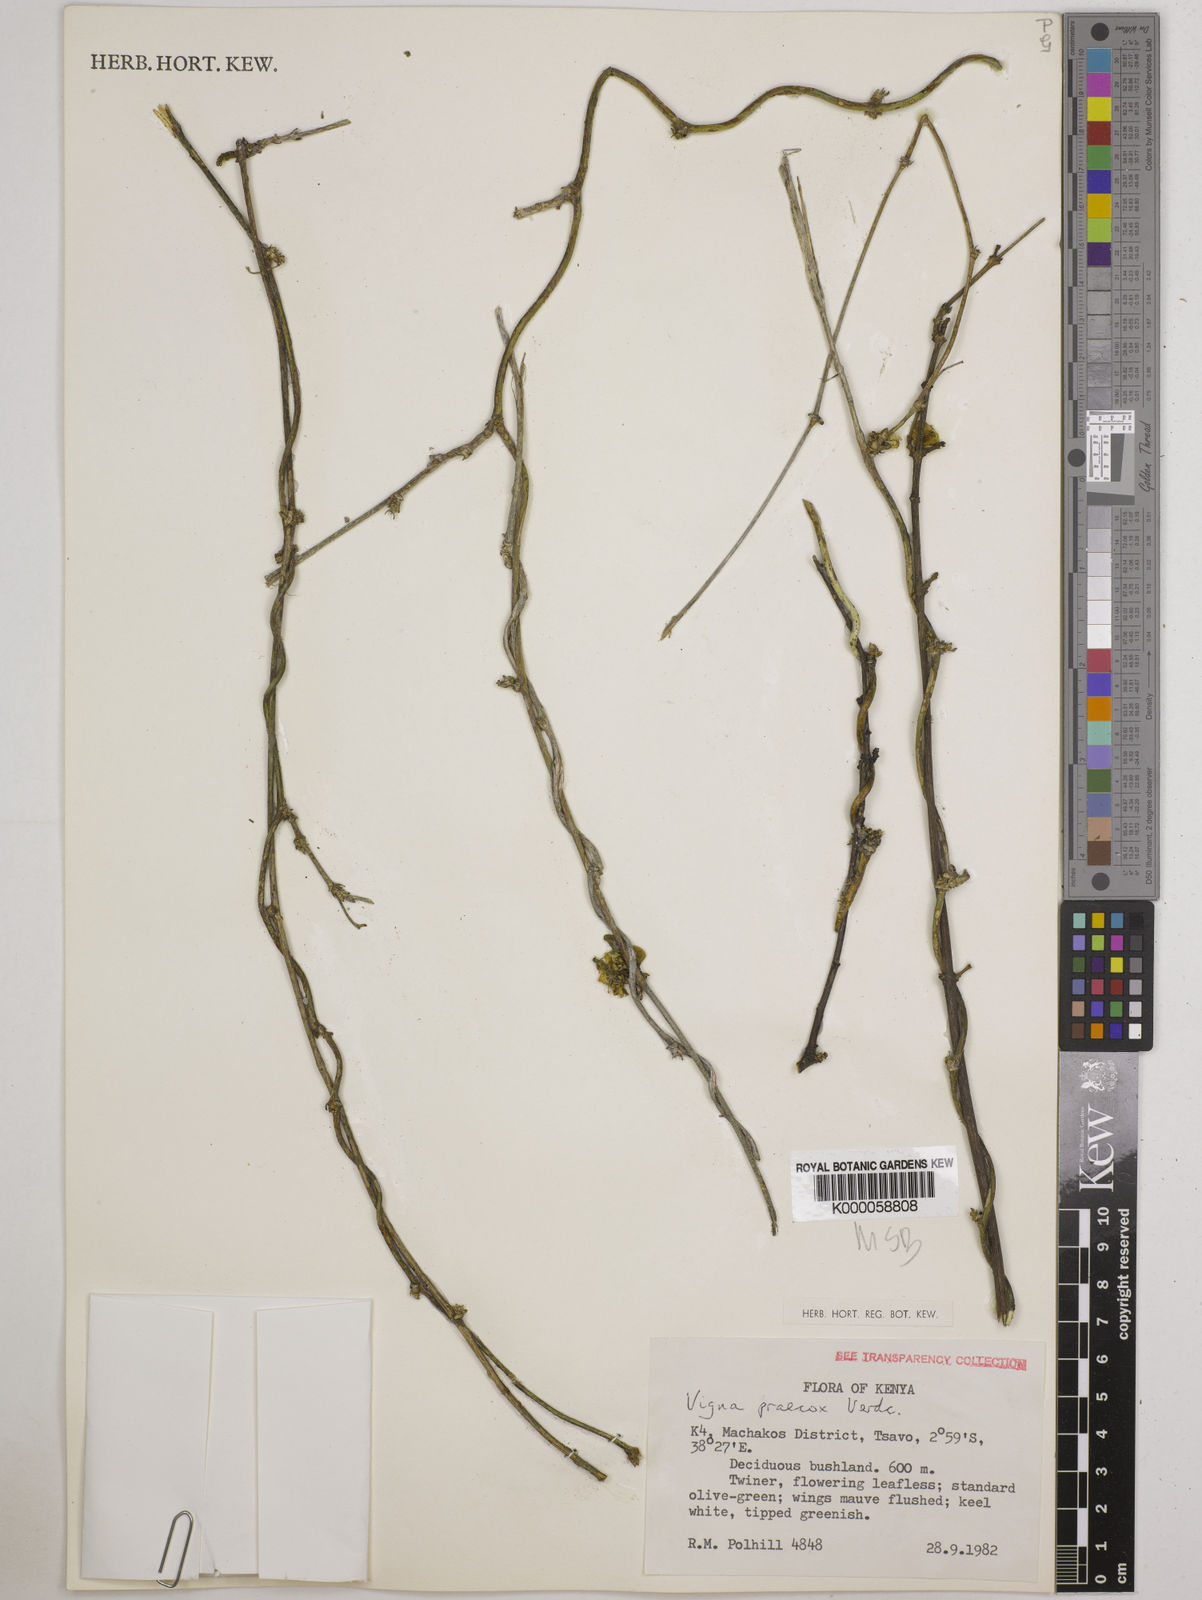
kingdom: Plantae
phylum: Tracheophyta
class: Magnoliopsida
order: Fabales
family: Fabaceae
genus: Wajira
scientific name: Wajira praecox
